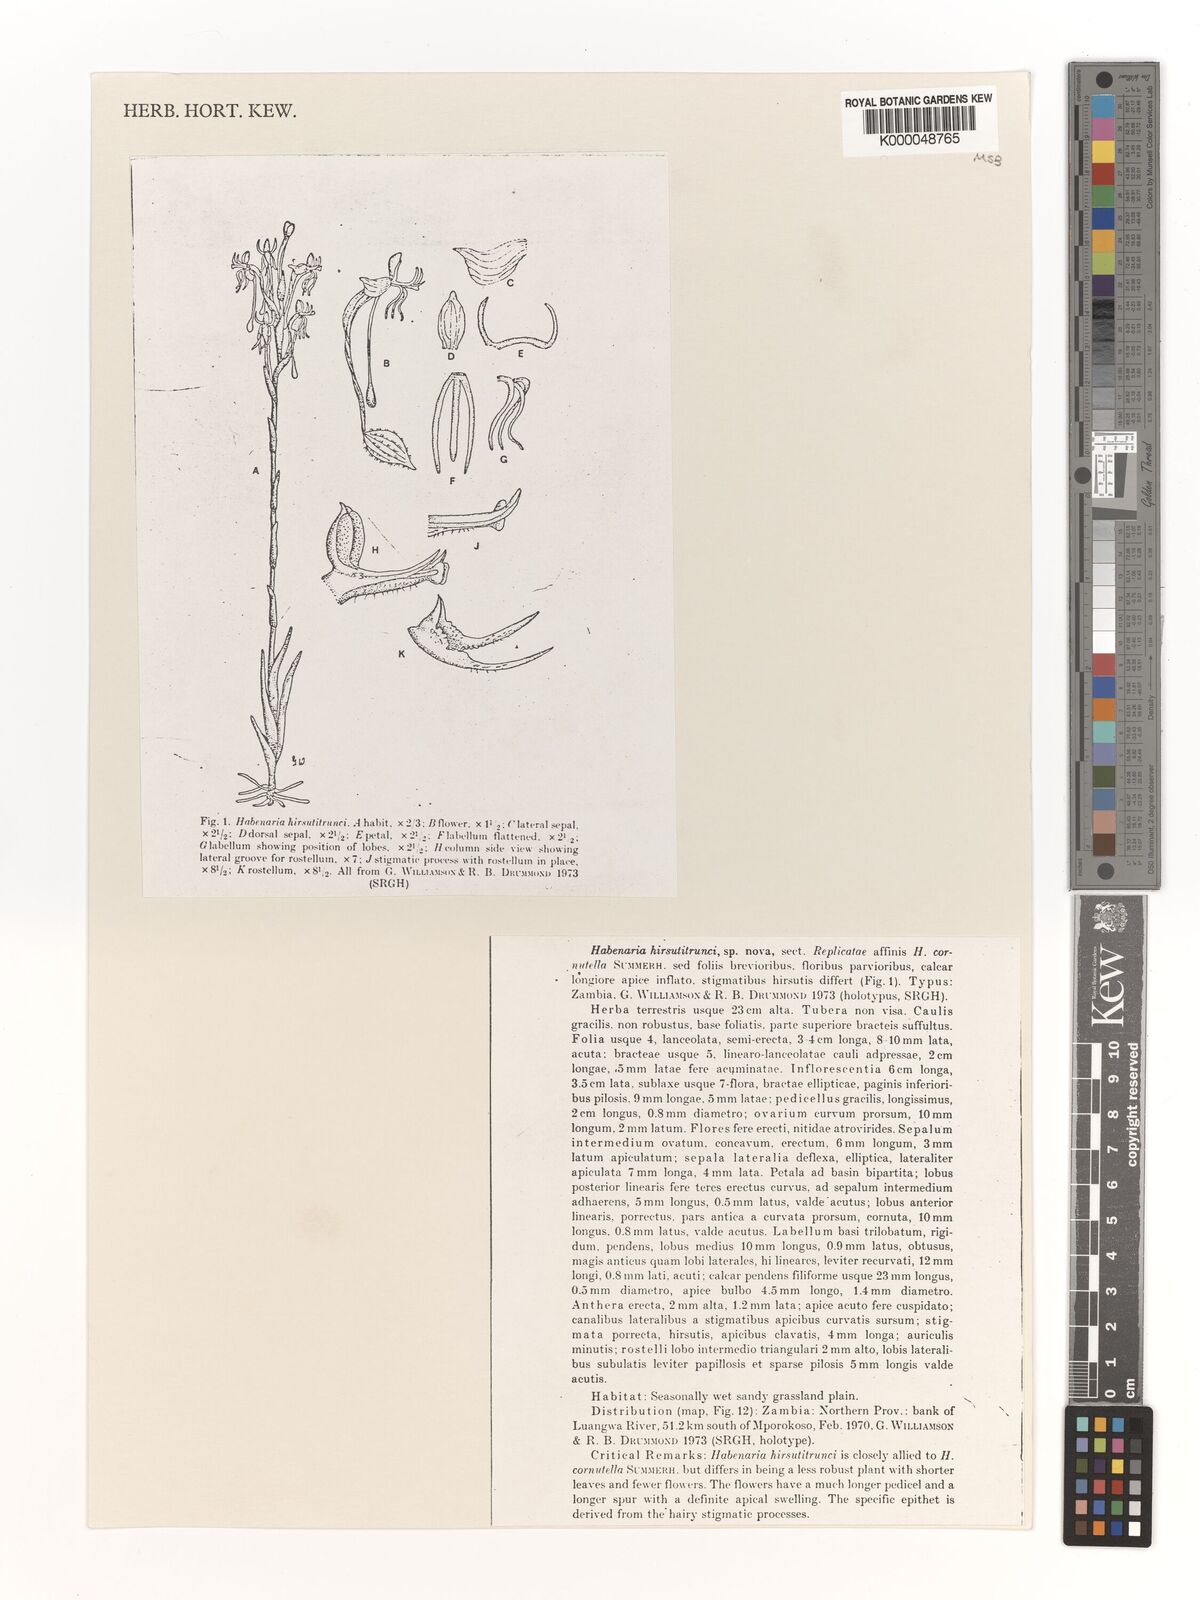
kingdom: Plantae
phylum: Tracheophyta
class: Liliopsida
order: Asparagales
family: Orchidaceae
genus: Habenaria
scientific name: Habenaria
